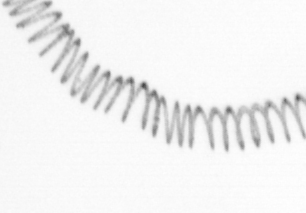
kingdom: Chromista
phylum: Ochrophyta
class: Bacillariophyceae
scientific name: Bacillariophyceae
